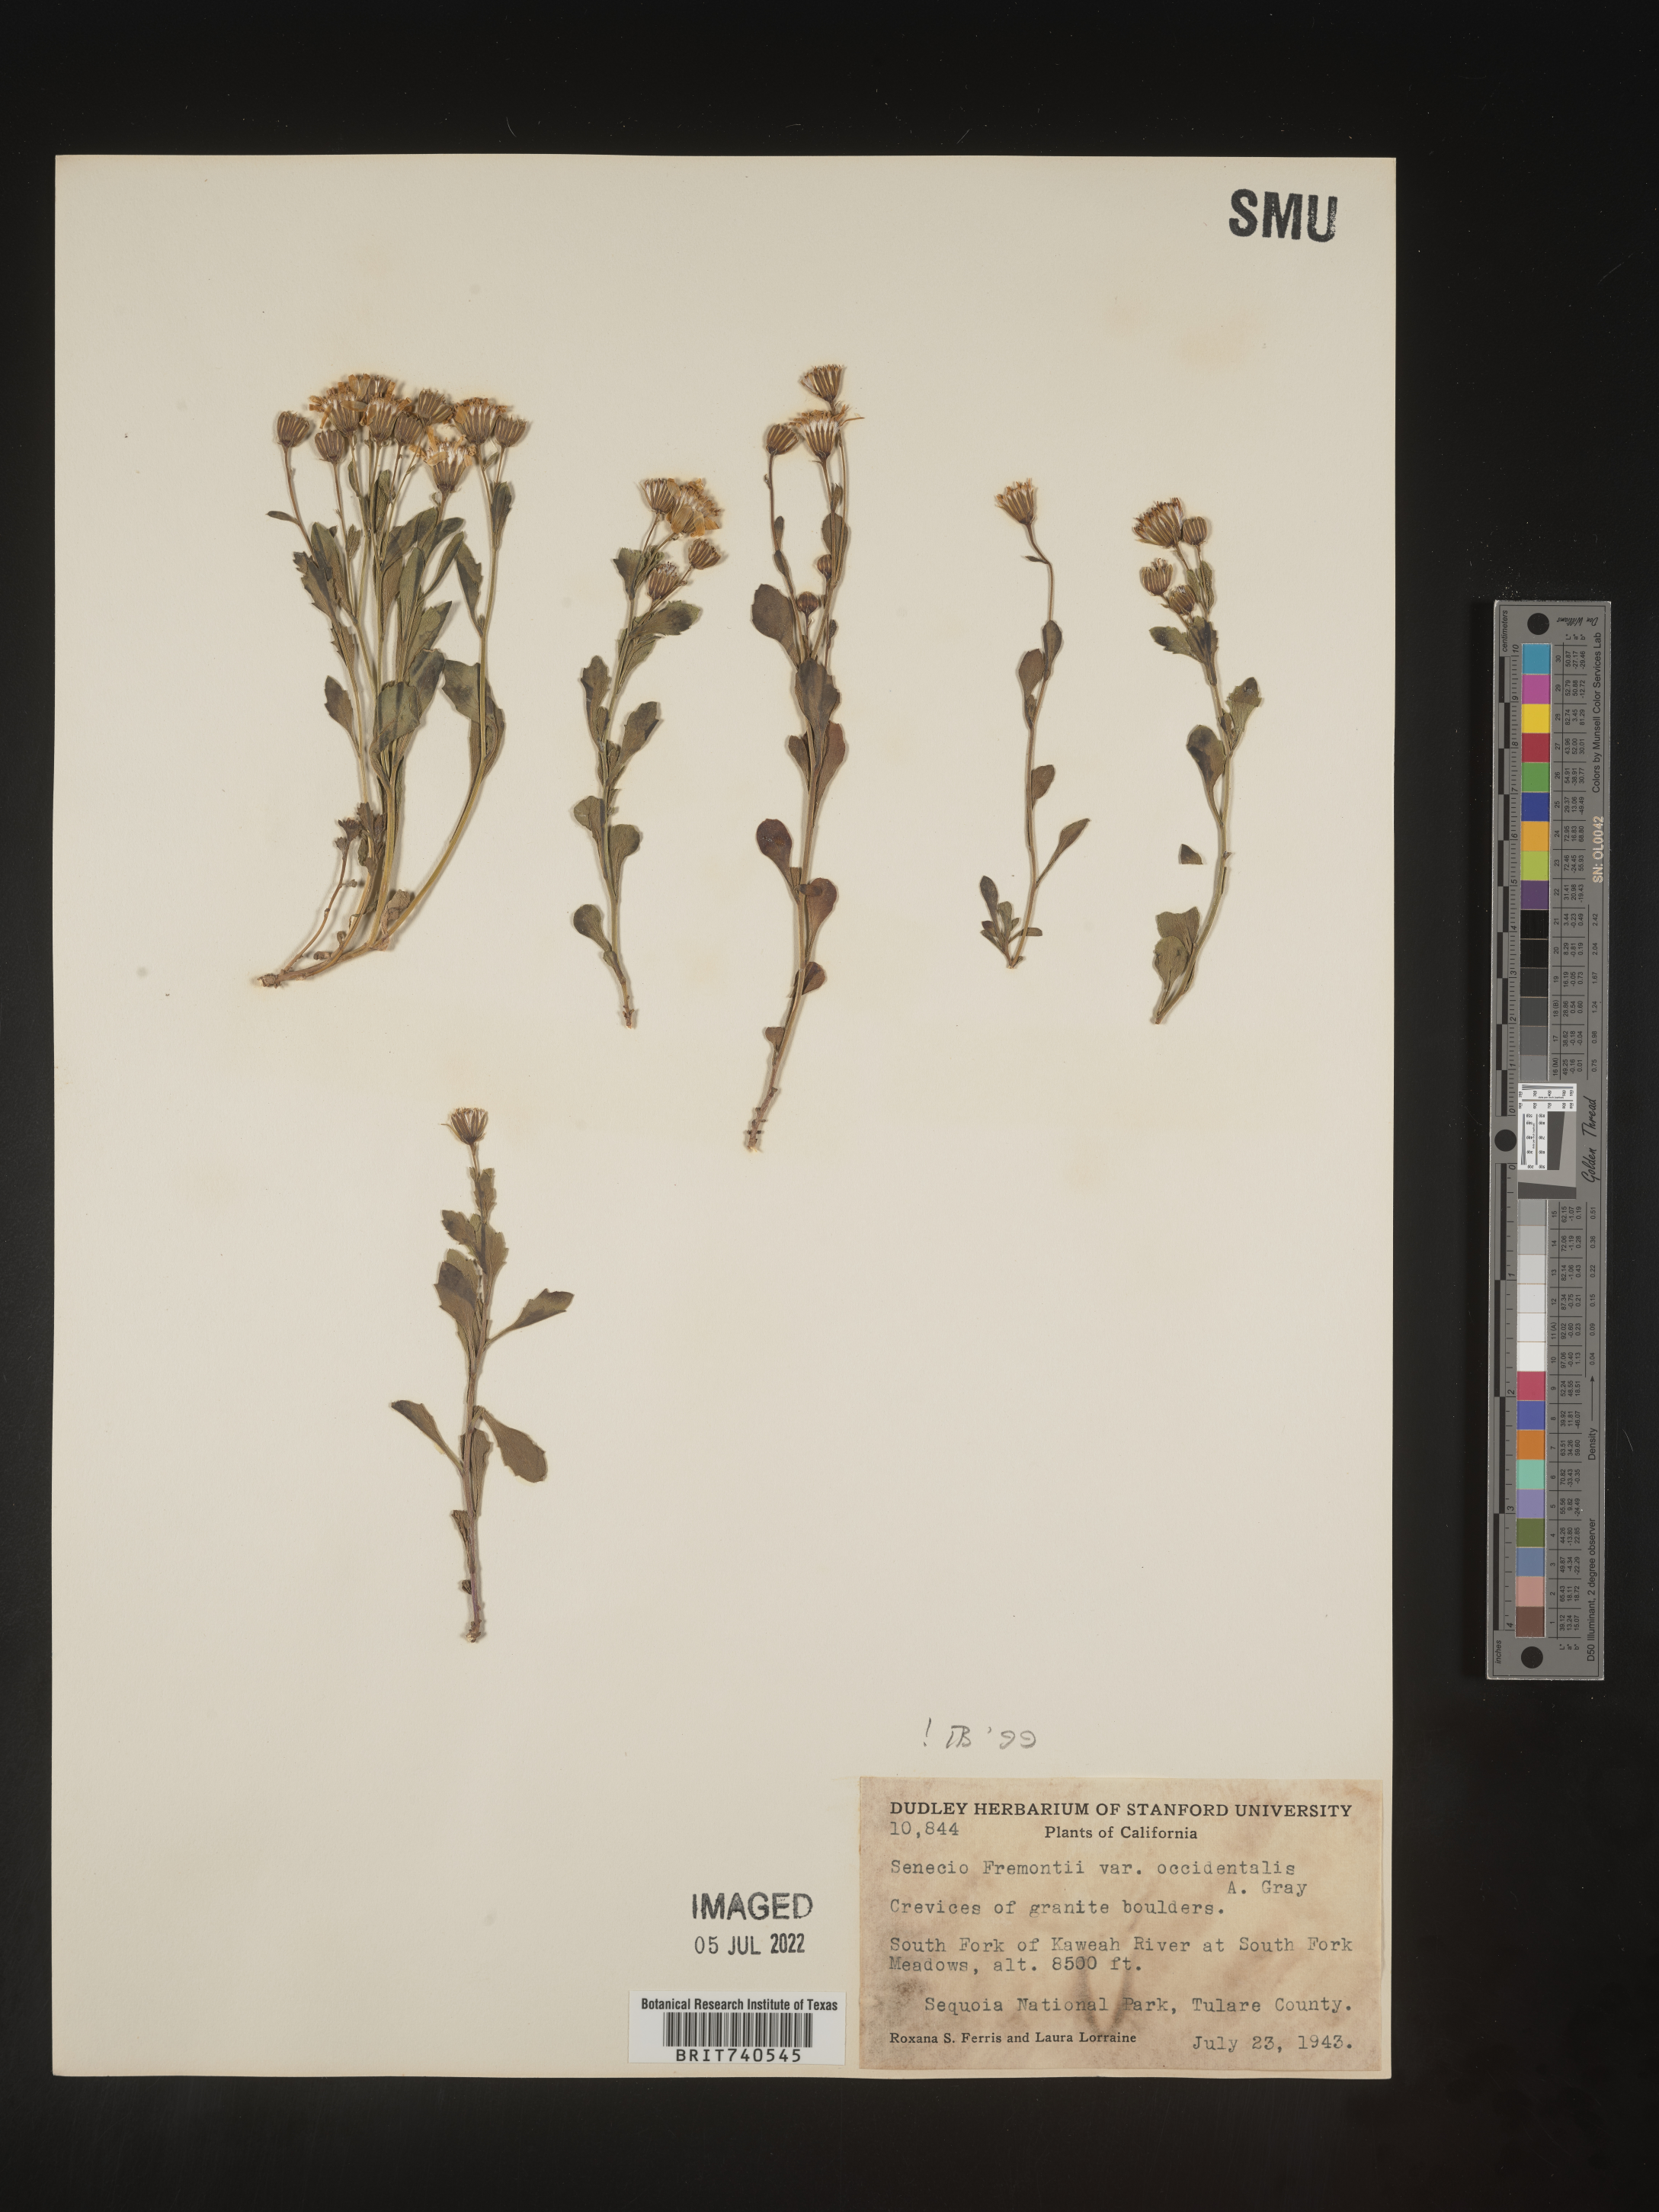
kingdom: Plantae
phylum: Tracheophyta
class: Magnoliopsida
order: Asterales
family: Asteraceae
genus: Senecio
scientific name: Senecio fremontii
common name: Fremont's groundsel
